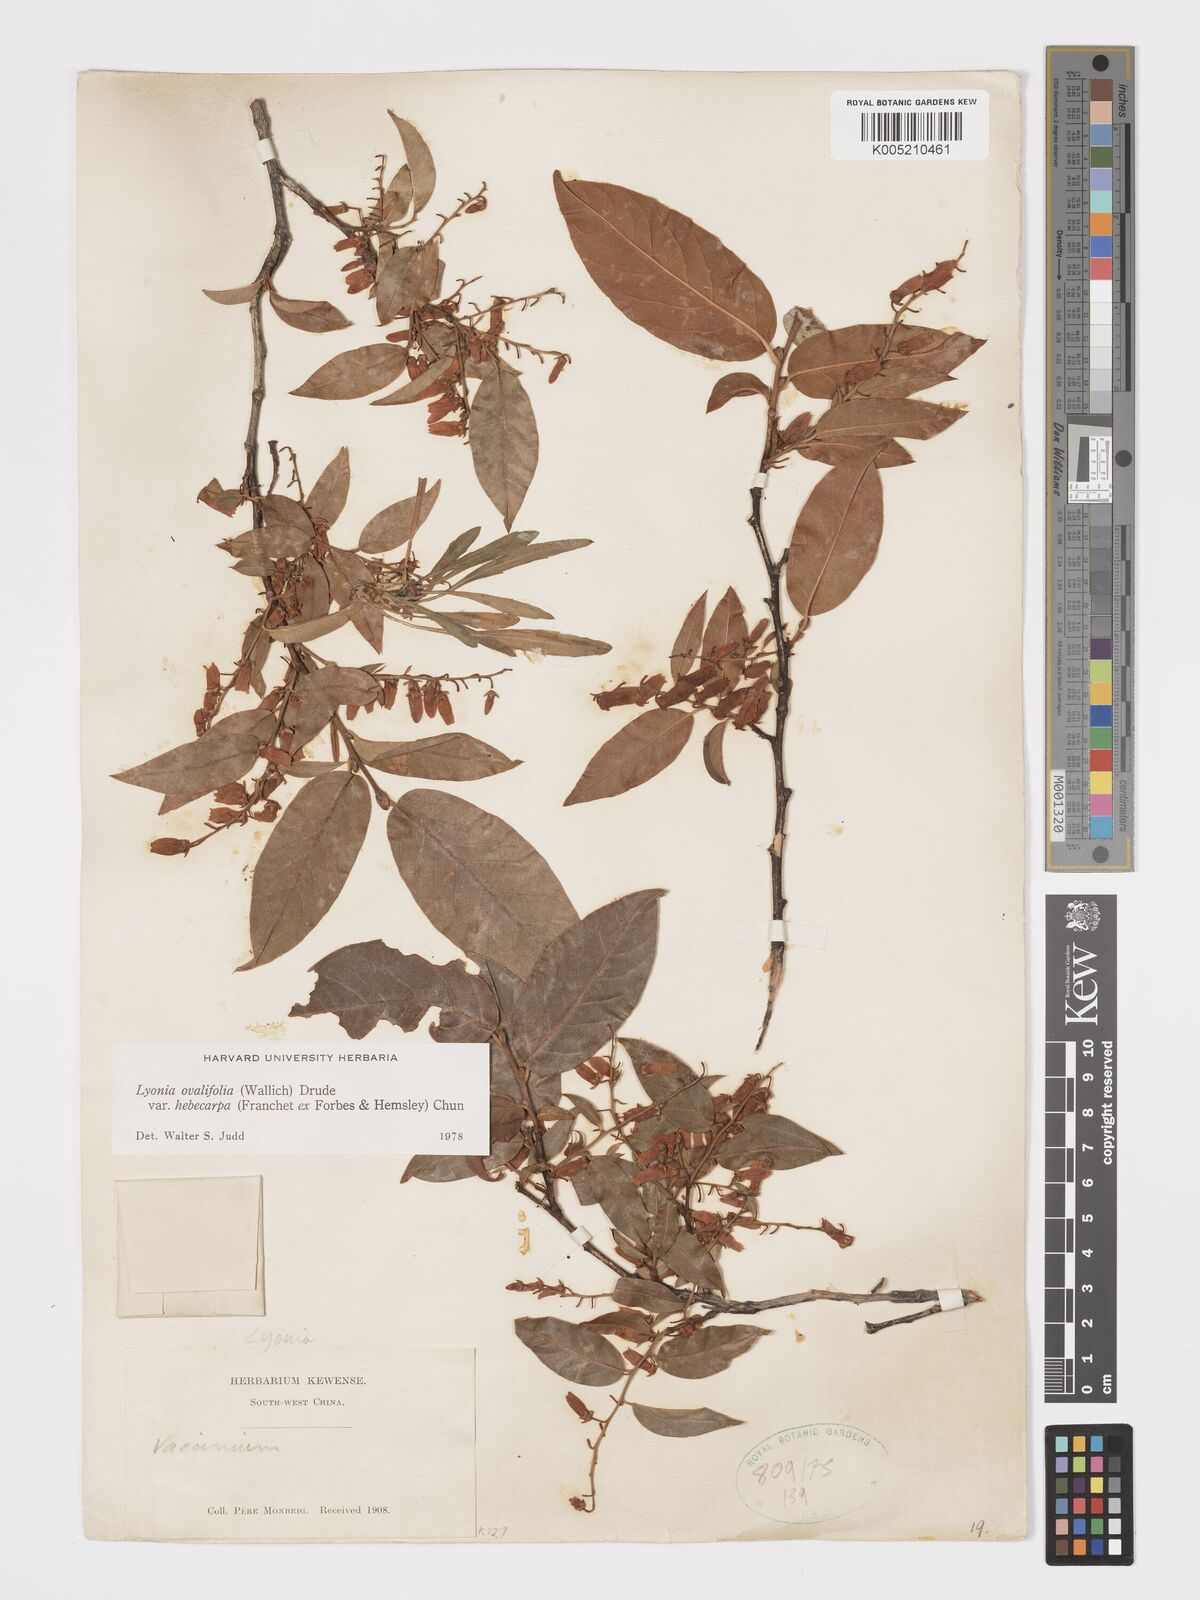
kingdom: Plantae
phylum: Tracheophyta
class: Magnoliopsida
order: Ericales
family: Ericaceae
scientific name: Ericaceae
